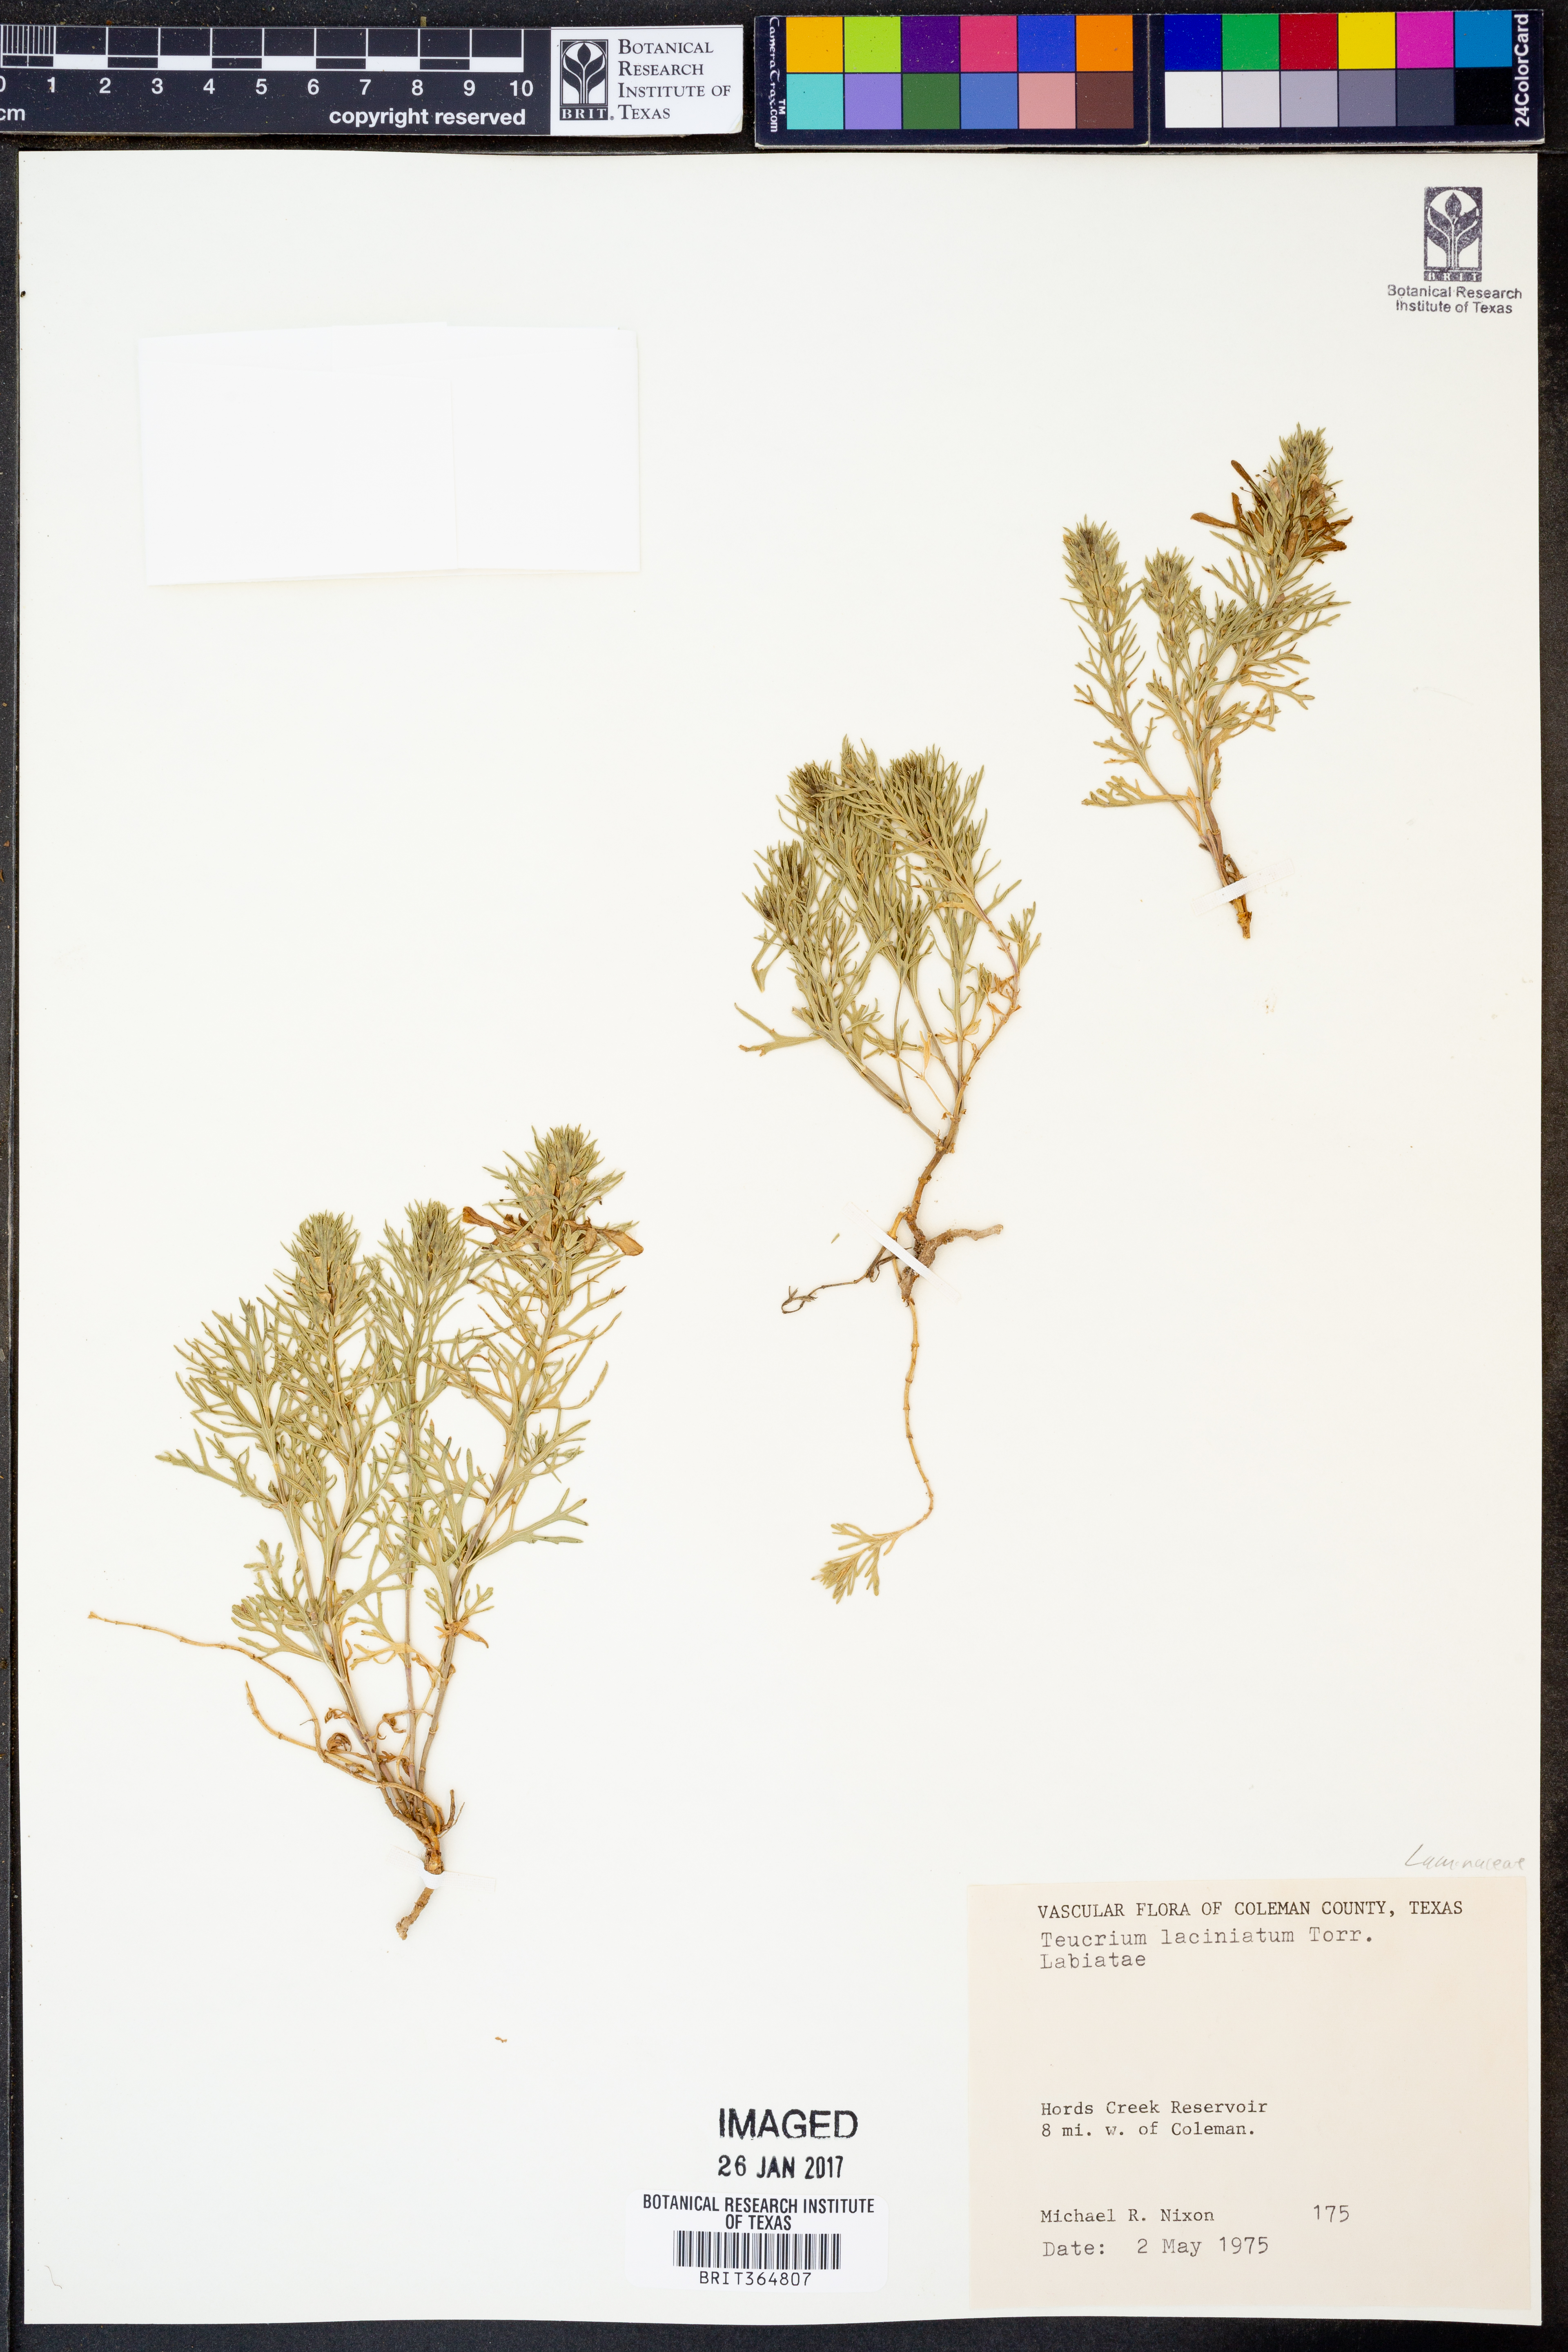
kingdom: Plantae
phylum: Tracheophyta
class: Magnoliopsida
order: Lamiales
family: Lamiaceae
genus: Teucrium
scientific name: Teucrium laciniatum
